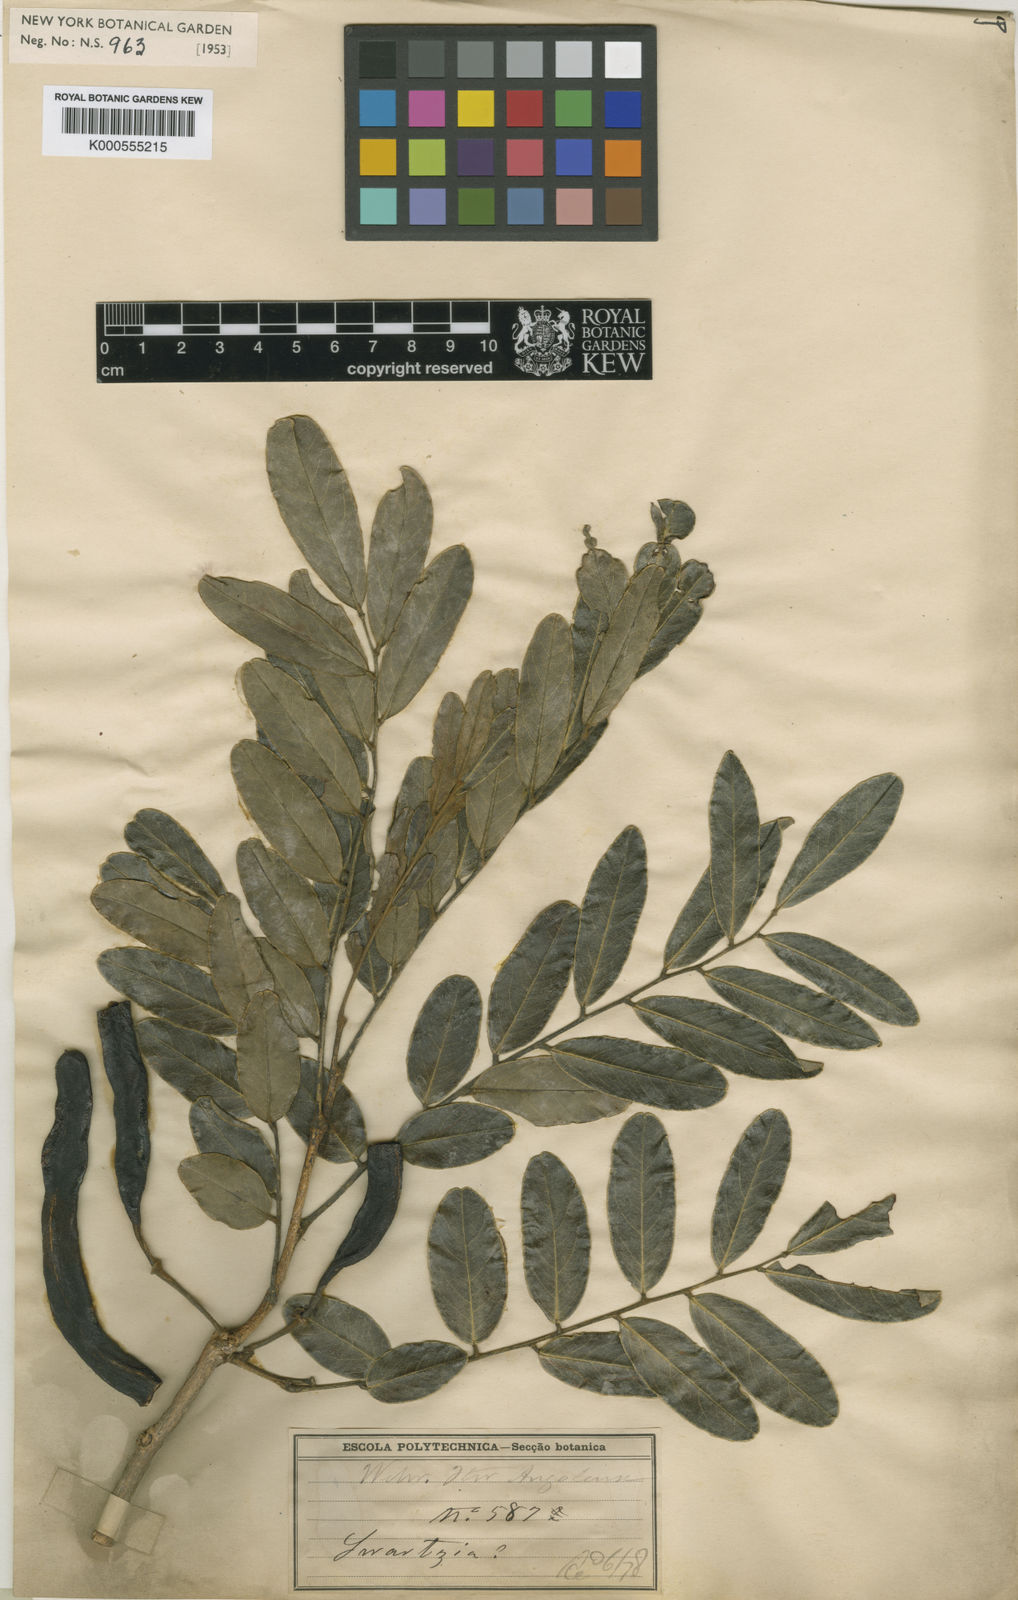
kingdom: Plantae
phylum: Tracheophyta
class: Magnoliopsida
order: Fabales
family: Fabaceae
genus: Bobgunnia
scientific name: Bobgunnia madagascariensis
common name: Snake bean plant
